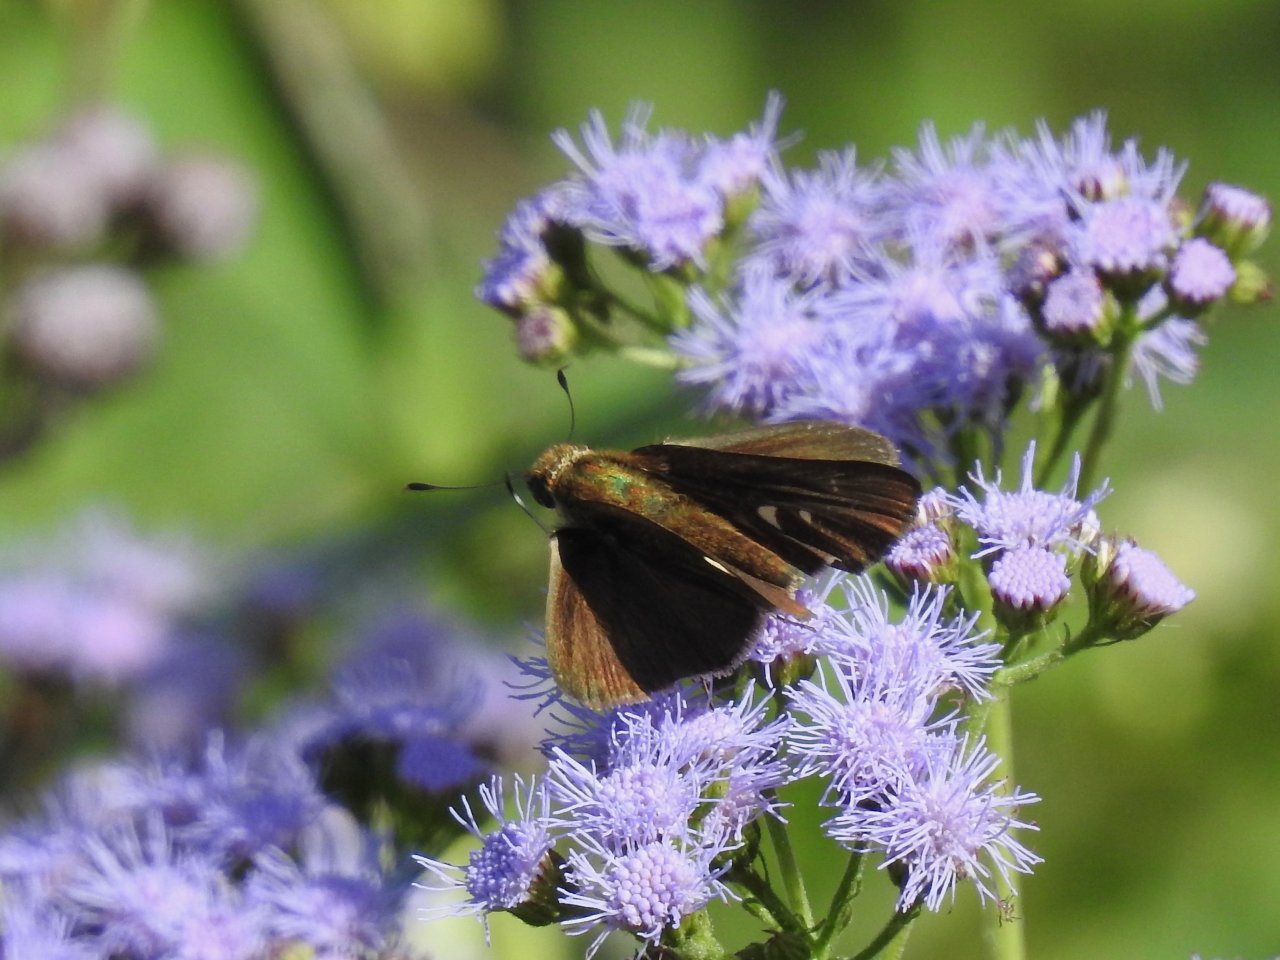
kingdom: Animalia
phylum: Arthropoda
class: Insecta
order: Lepidoptera
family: Hesperiidae
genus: Panoquina
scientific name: Panoquina ocola
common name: Ocola Skipper
